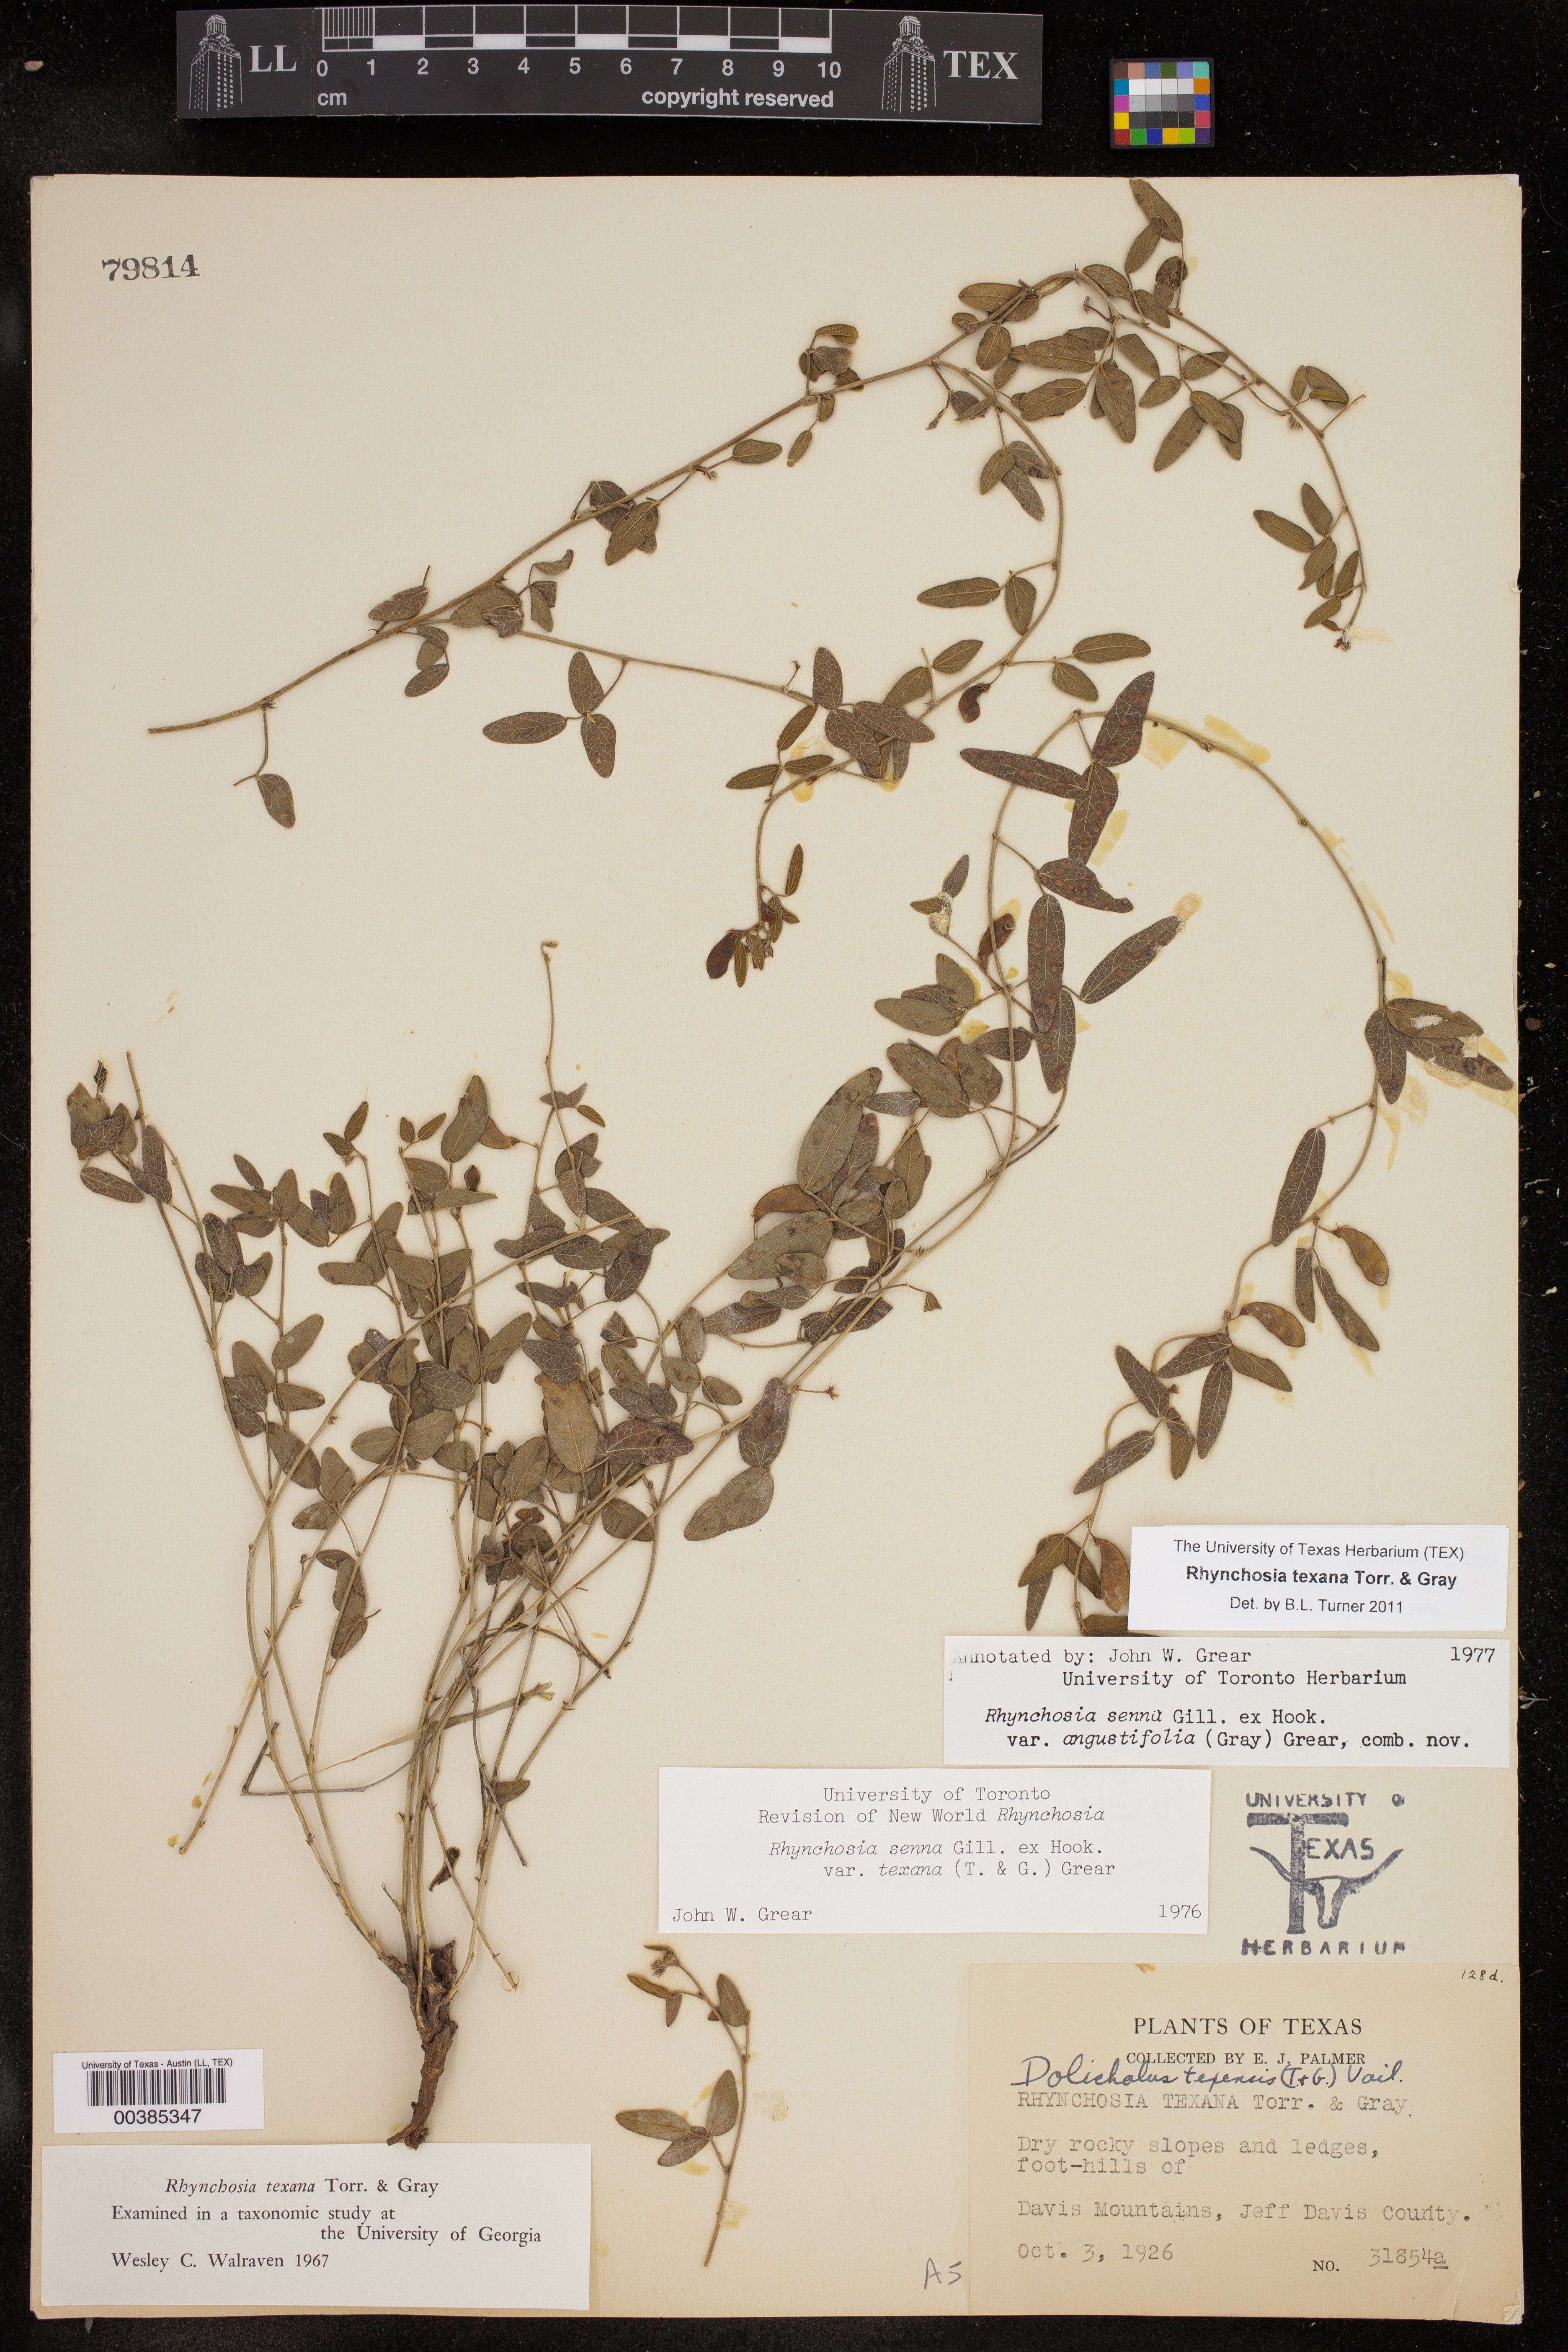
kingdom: Plantae
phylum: Tracheophyta
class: Magnoliopsida
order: Fabales
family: Fabaceae
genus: Rhynchosia
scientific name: Rhynchosia senna
